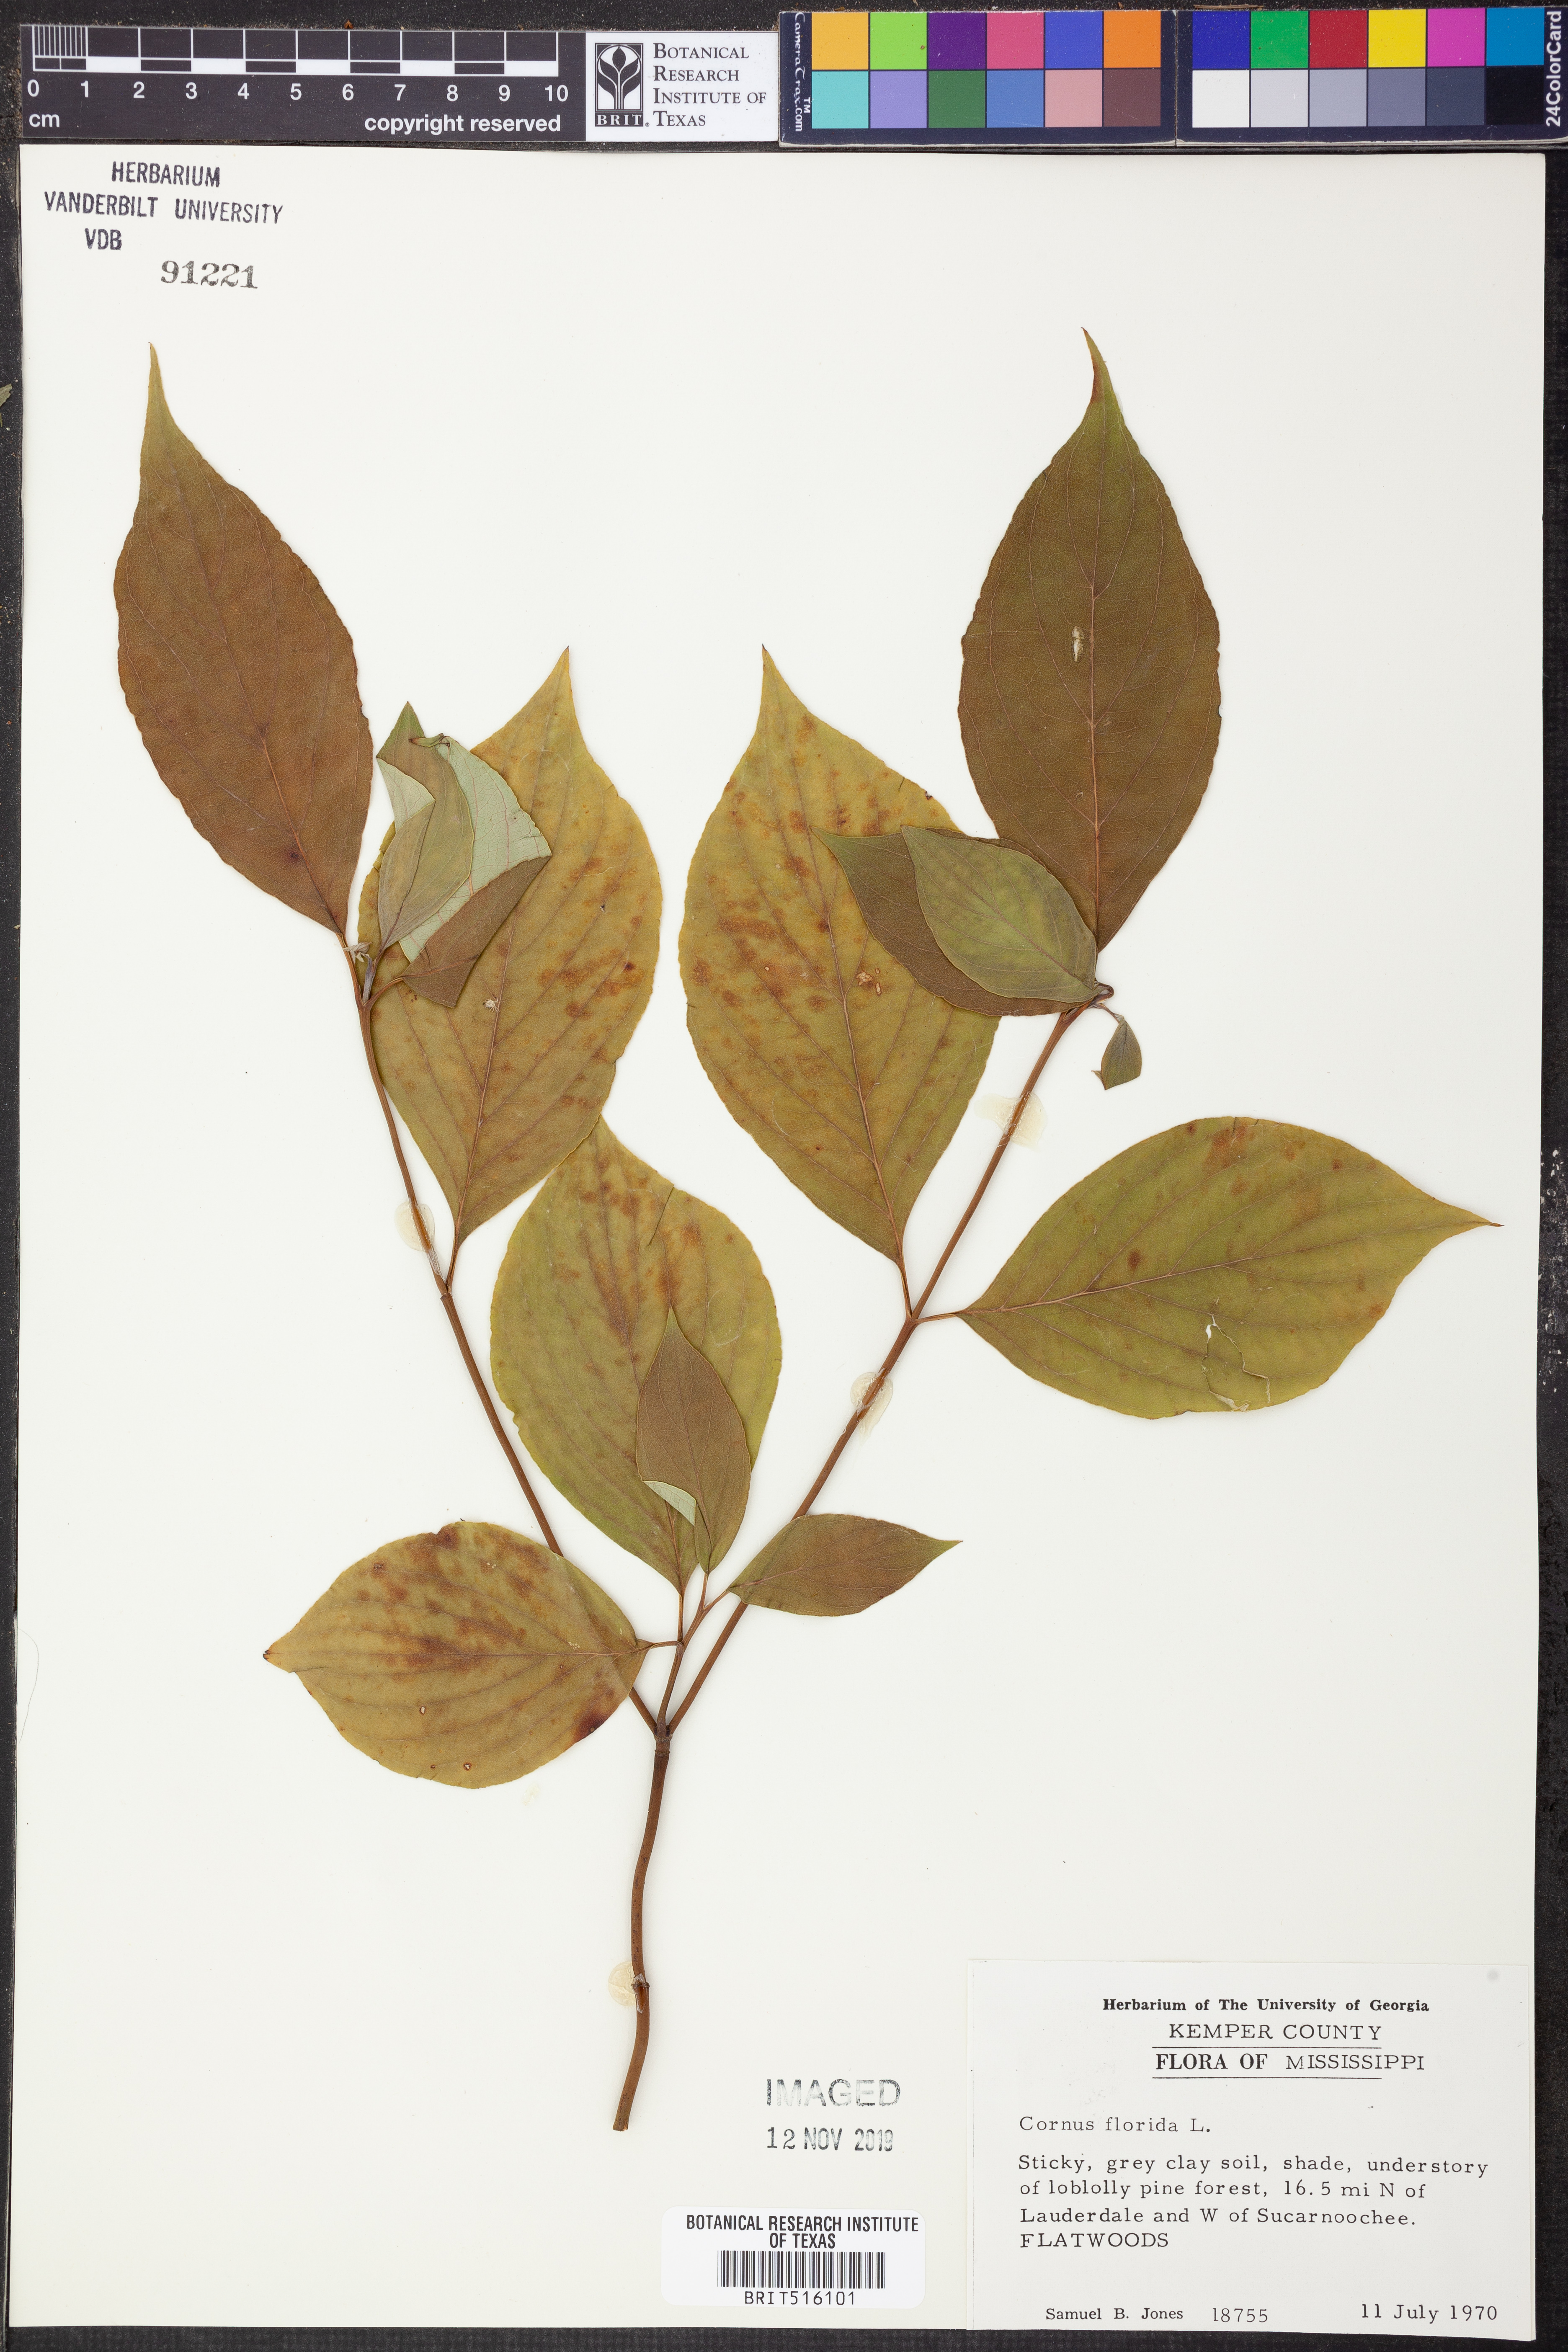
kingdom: Plantae
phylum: Tracheophyta
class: Magnoliopsida
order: Cornales
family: Cornaceae
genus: Cornus
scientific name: Cornus florida
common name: Flowering dogwood
